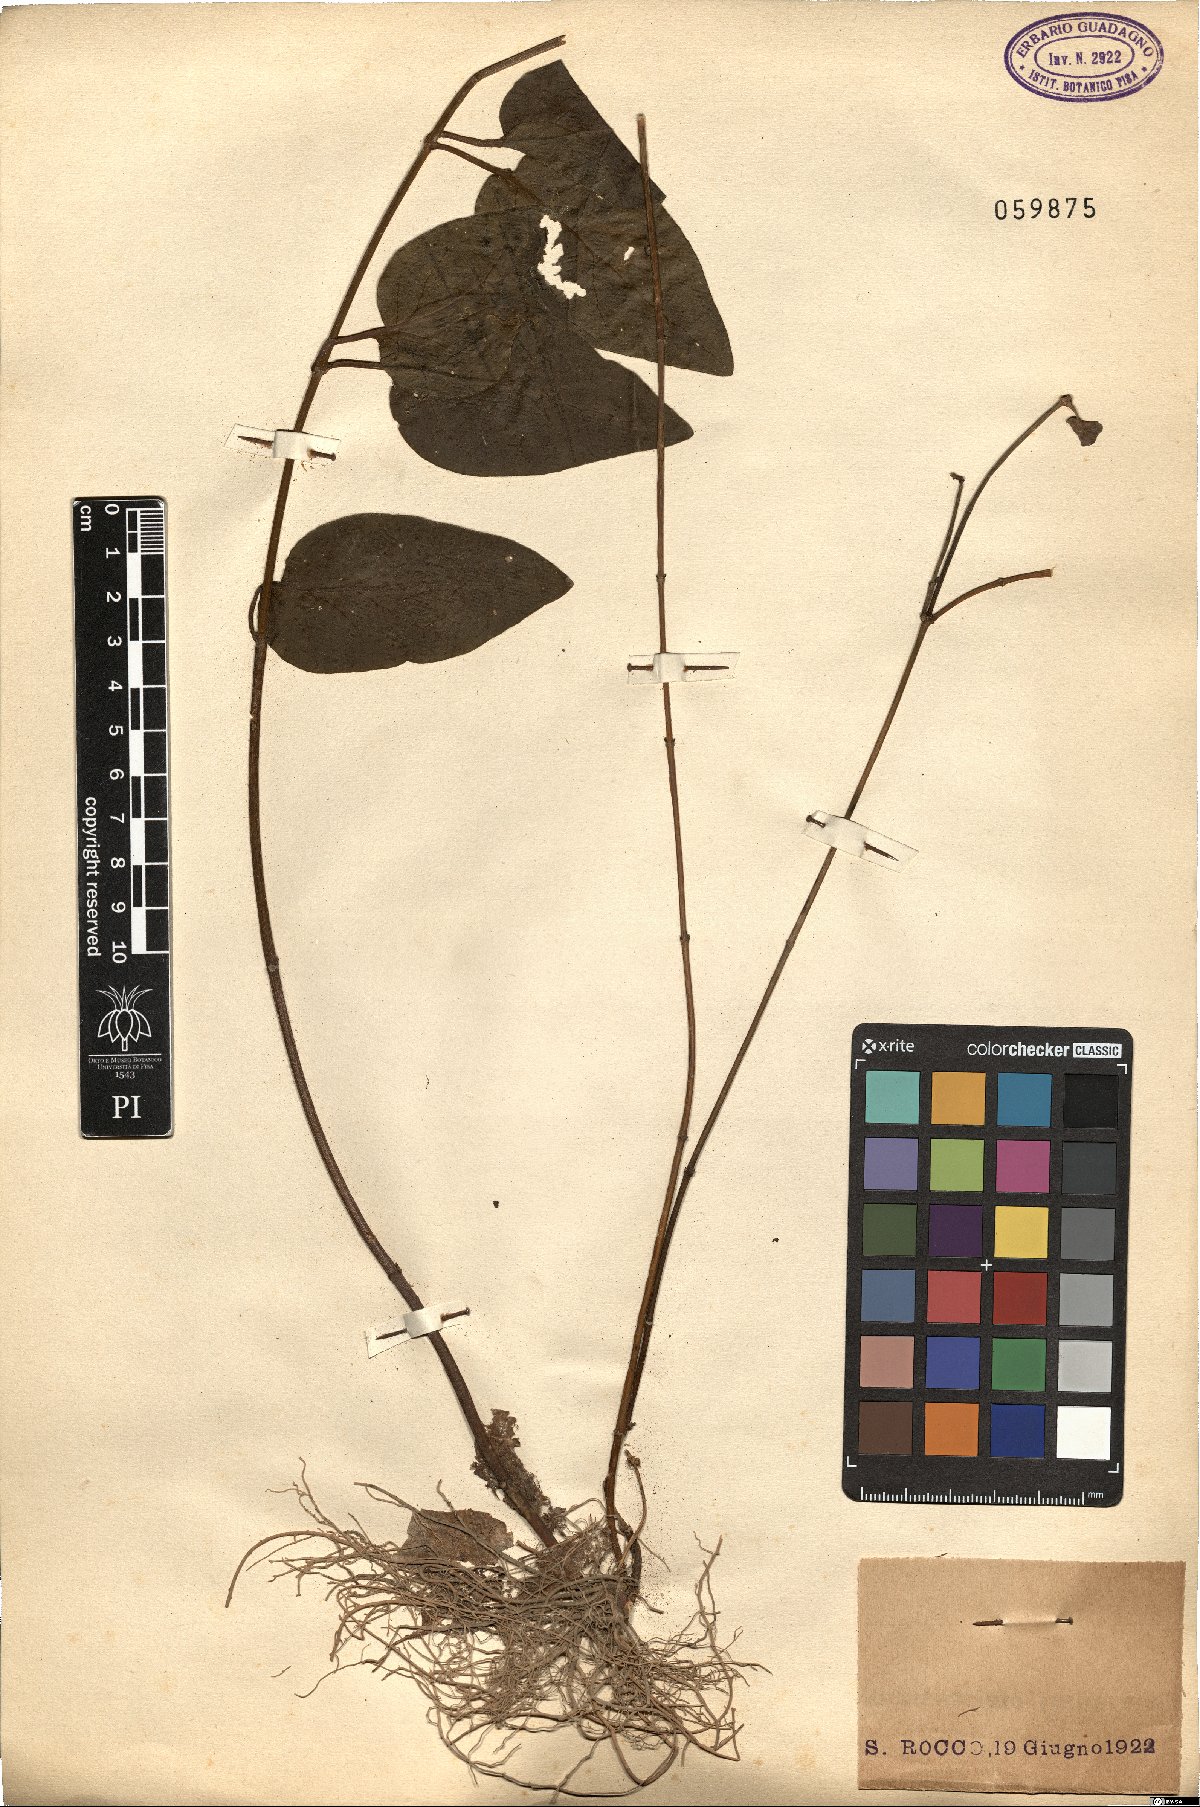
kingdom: Plantae
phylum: Tracheophyta
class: Magnoliopsida
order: Gentianales
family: Apocynaceae
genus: Vinca
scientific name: Vinca major
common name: Greater periwinkle
